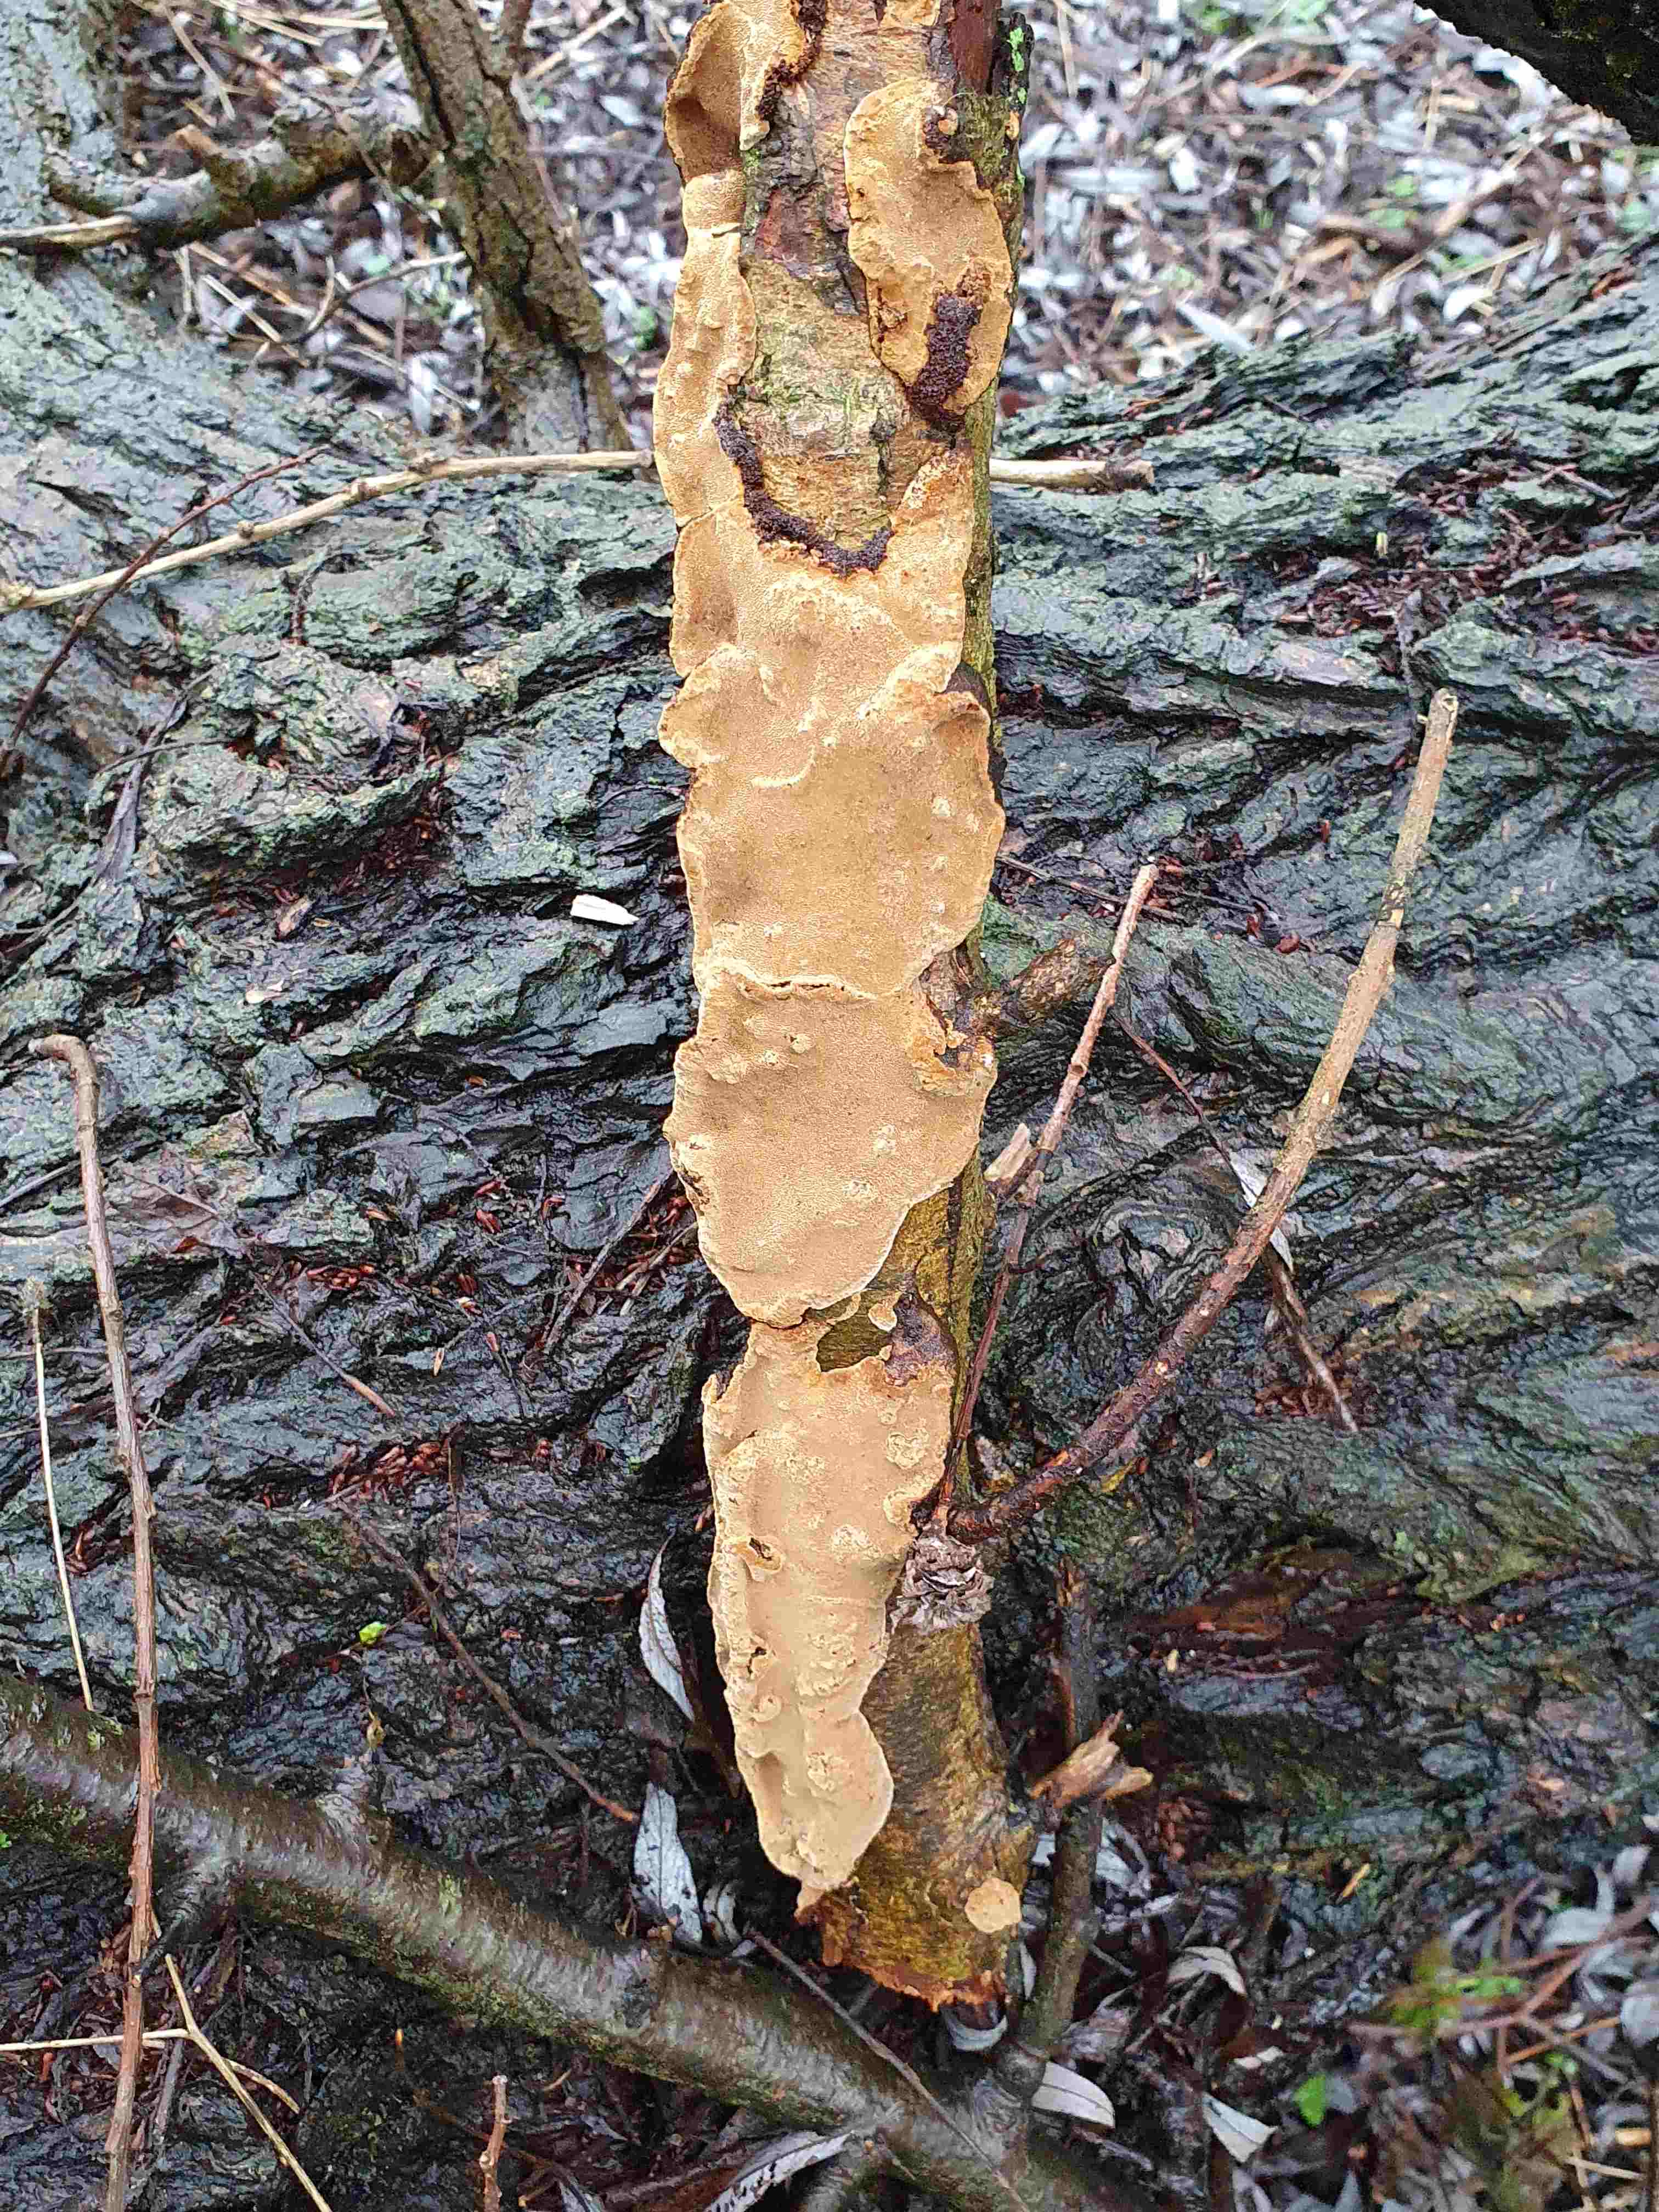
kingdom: Fungi
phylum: Basidiomycota
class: Agaricomycetes
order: Hymenochaetales
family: Hymenochaetaceae
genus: Phellinopsis
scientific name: Phellinopsis conchata
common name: pile-ildporesvamp
